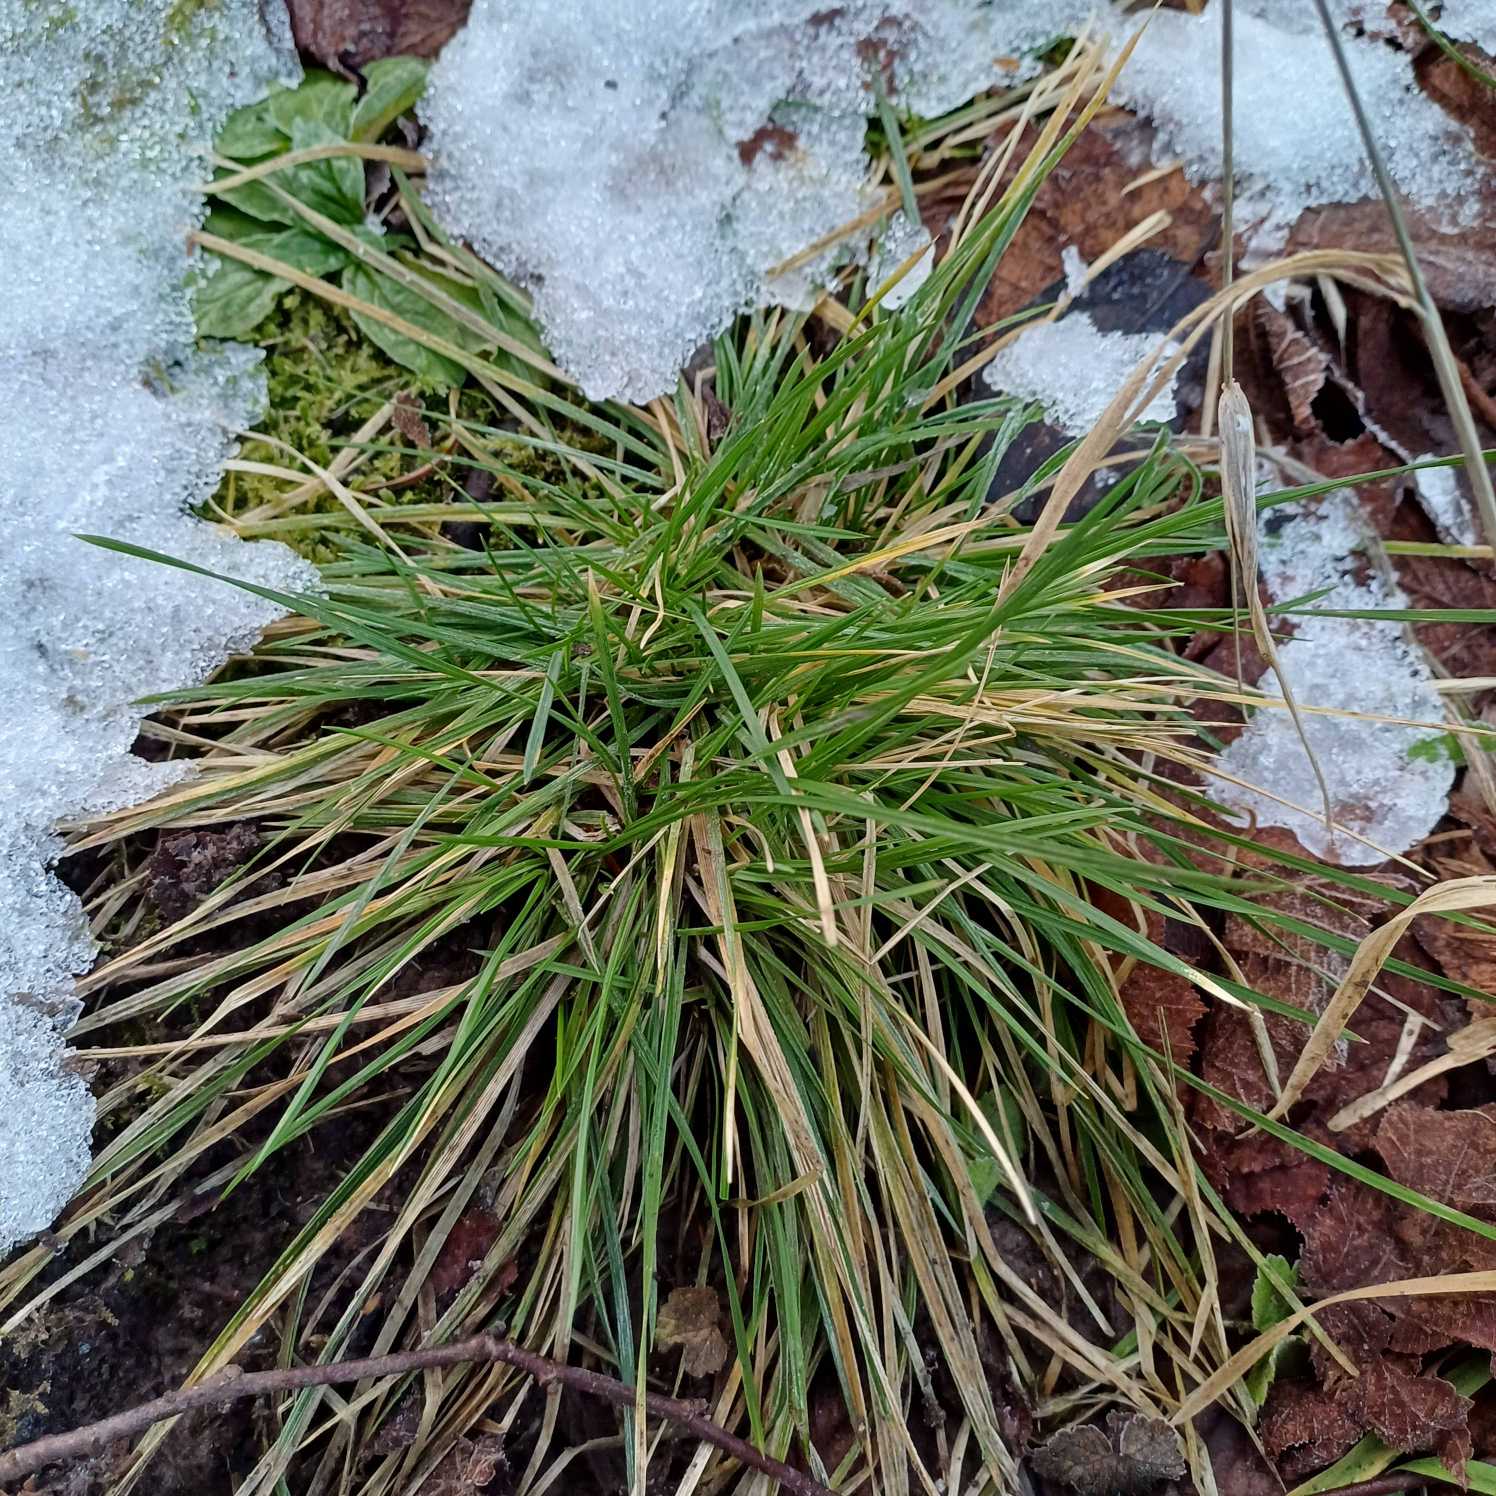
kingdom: Plantae
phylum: Tracheophyta
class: Liliopsida
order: Poales
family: Poaceae
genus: Deschampsia
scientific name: Deschampsia cespitosa
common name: Mose-bunke
